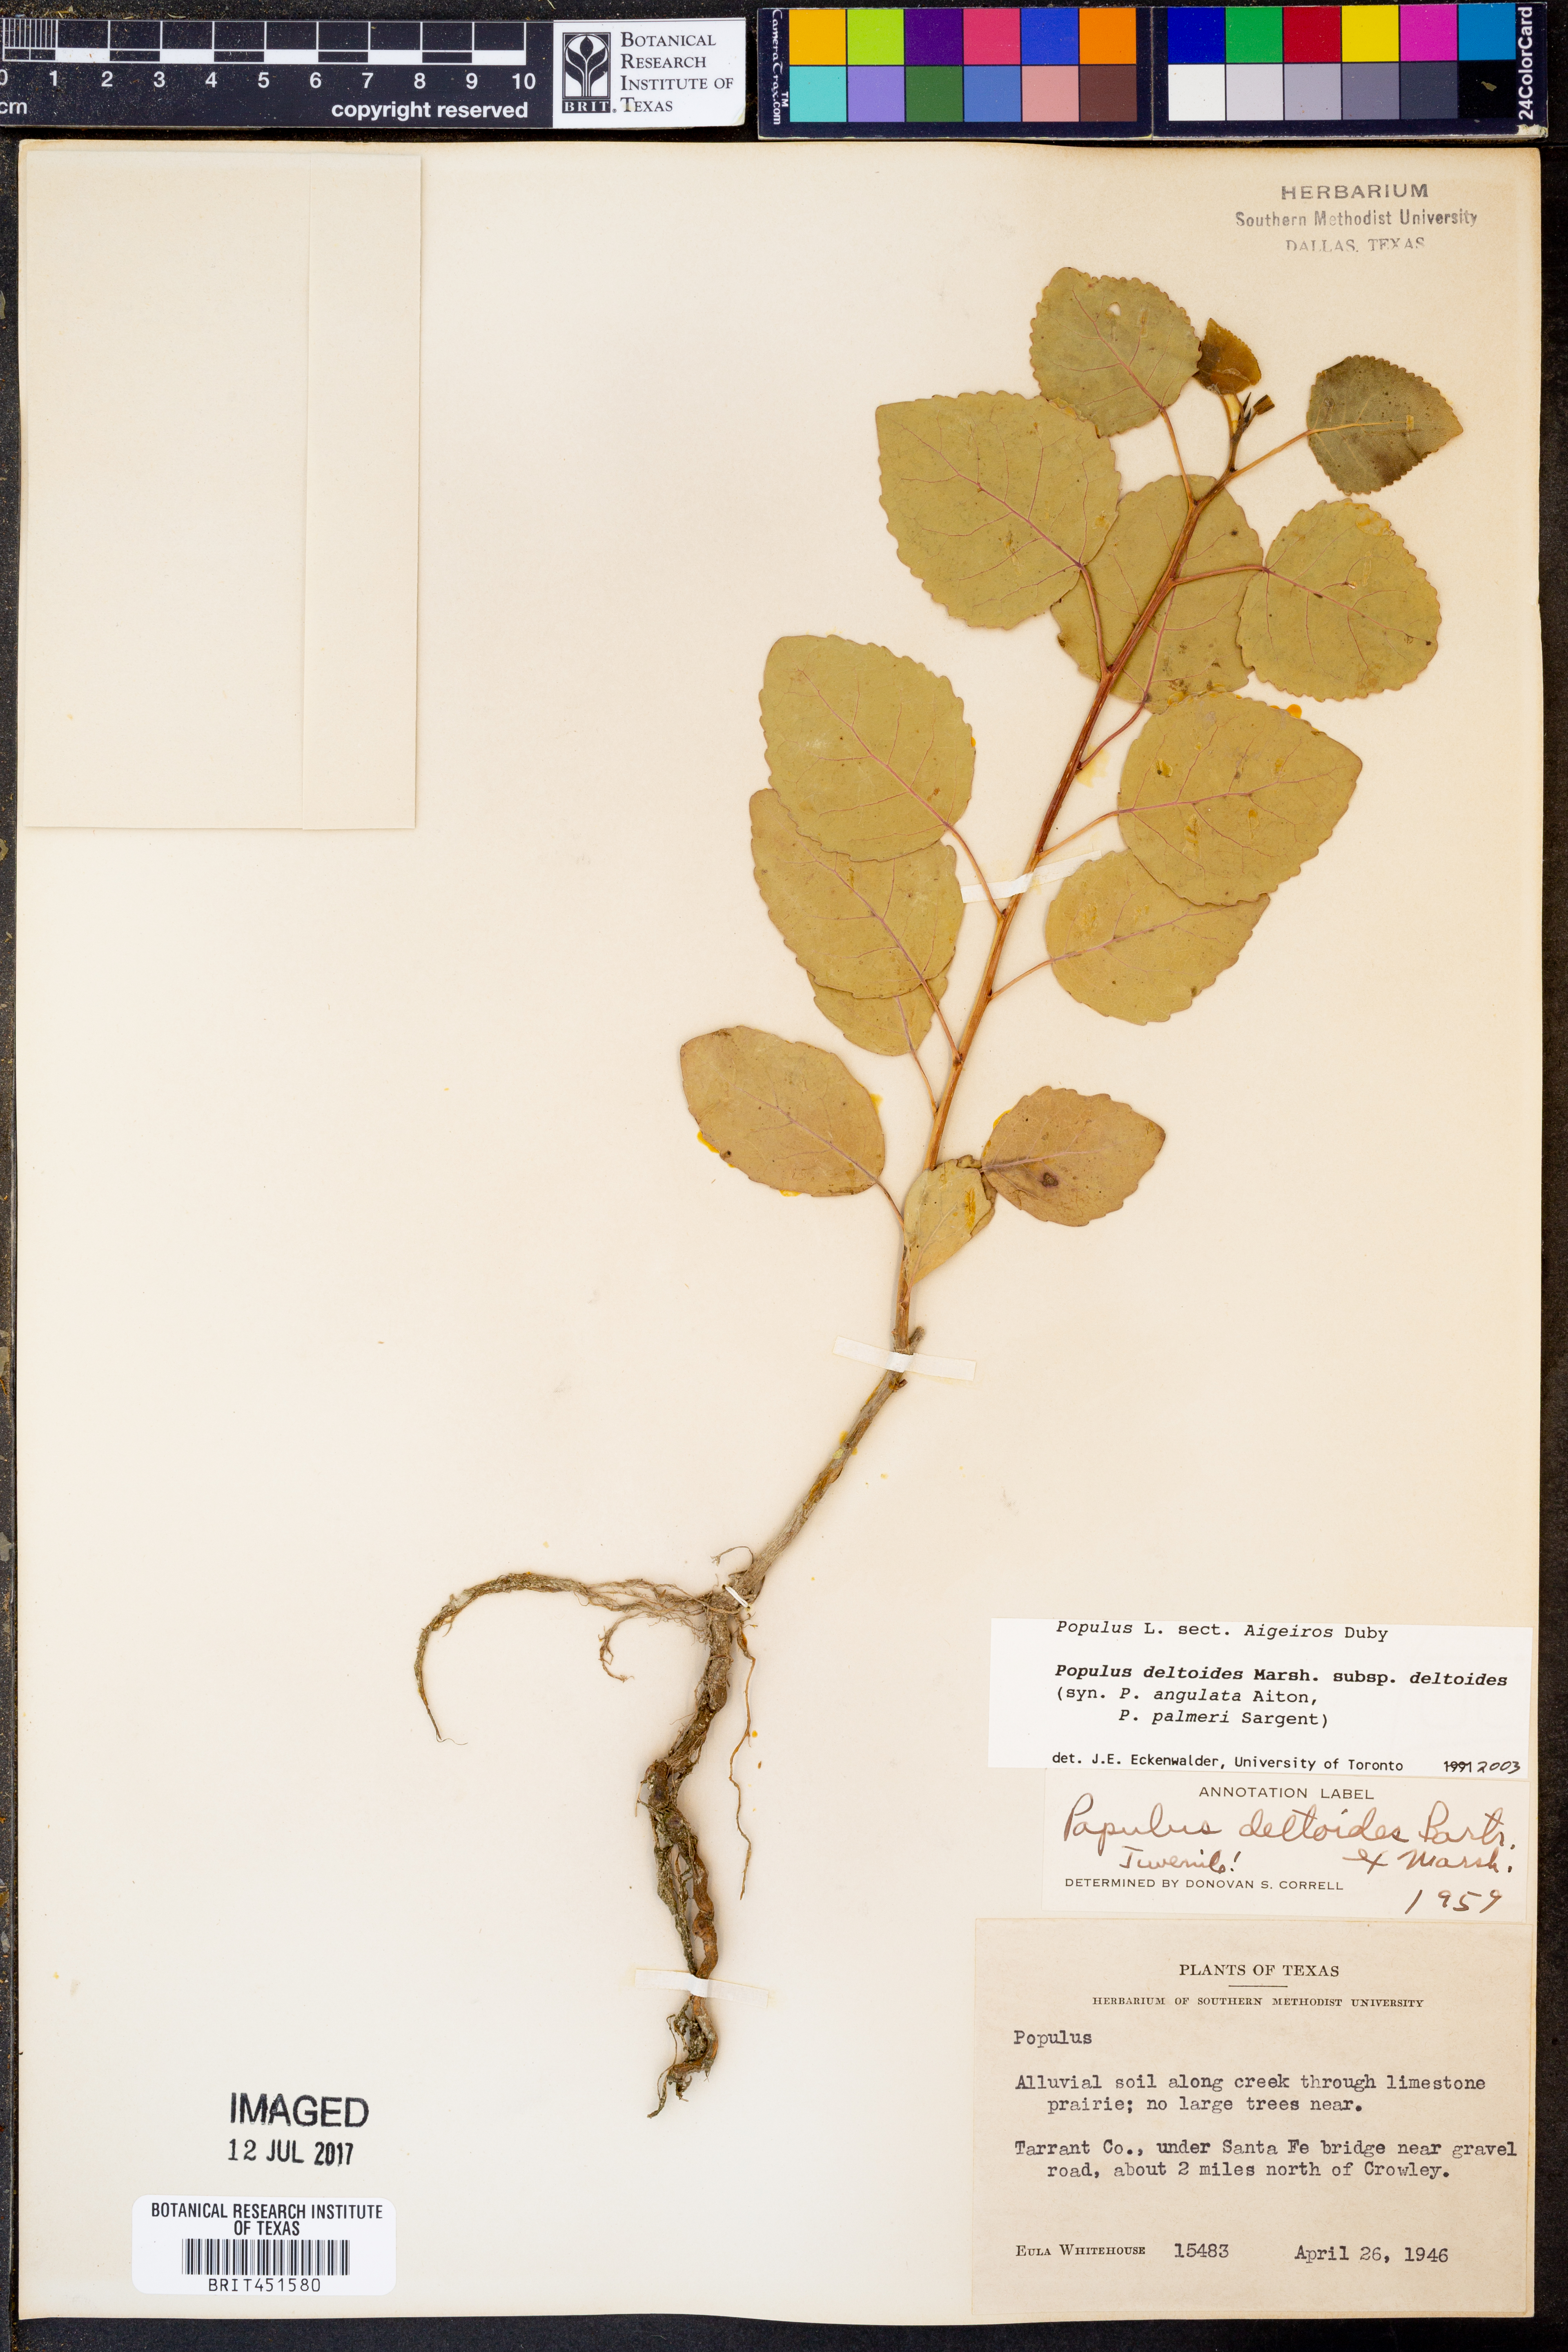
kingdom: Plantae
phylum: Tracheophyta
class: Magnoliopsida
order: Malpighiales
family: Salicaceae
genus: Populus
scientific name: Populus deltoides
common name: Eastern cottonwood
